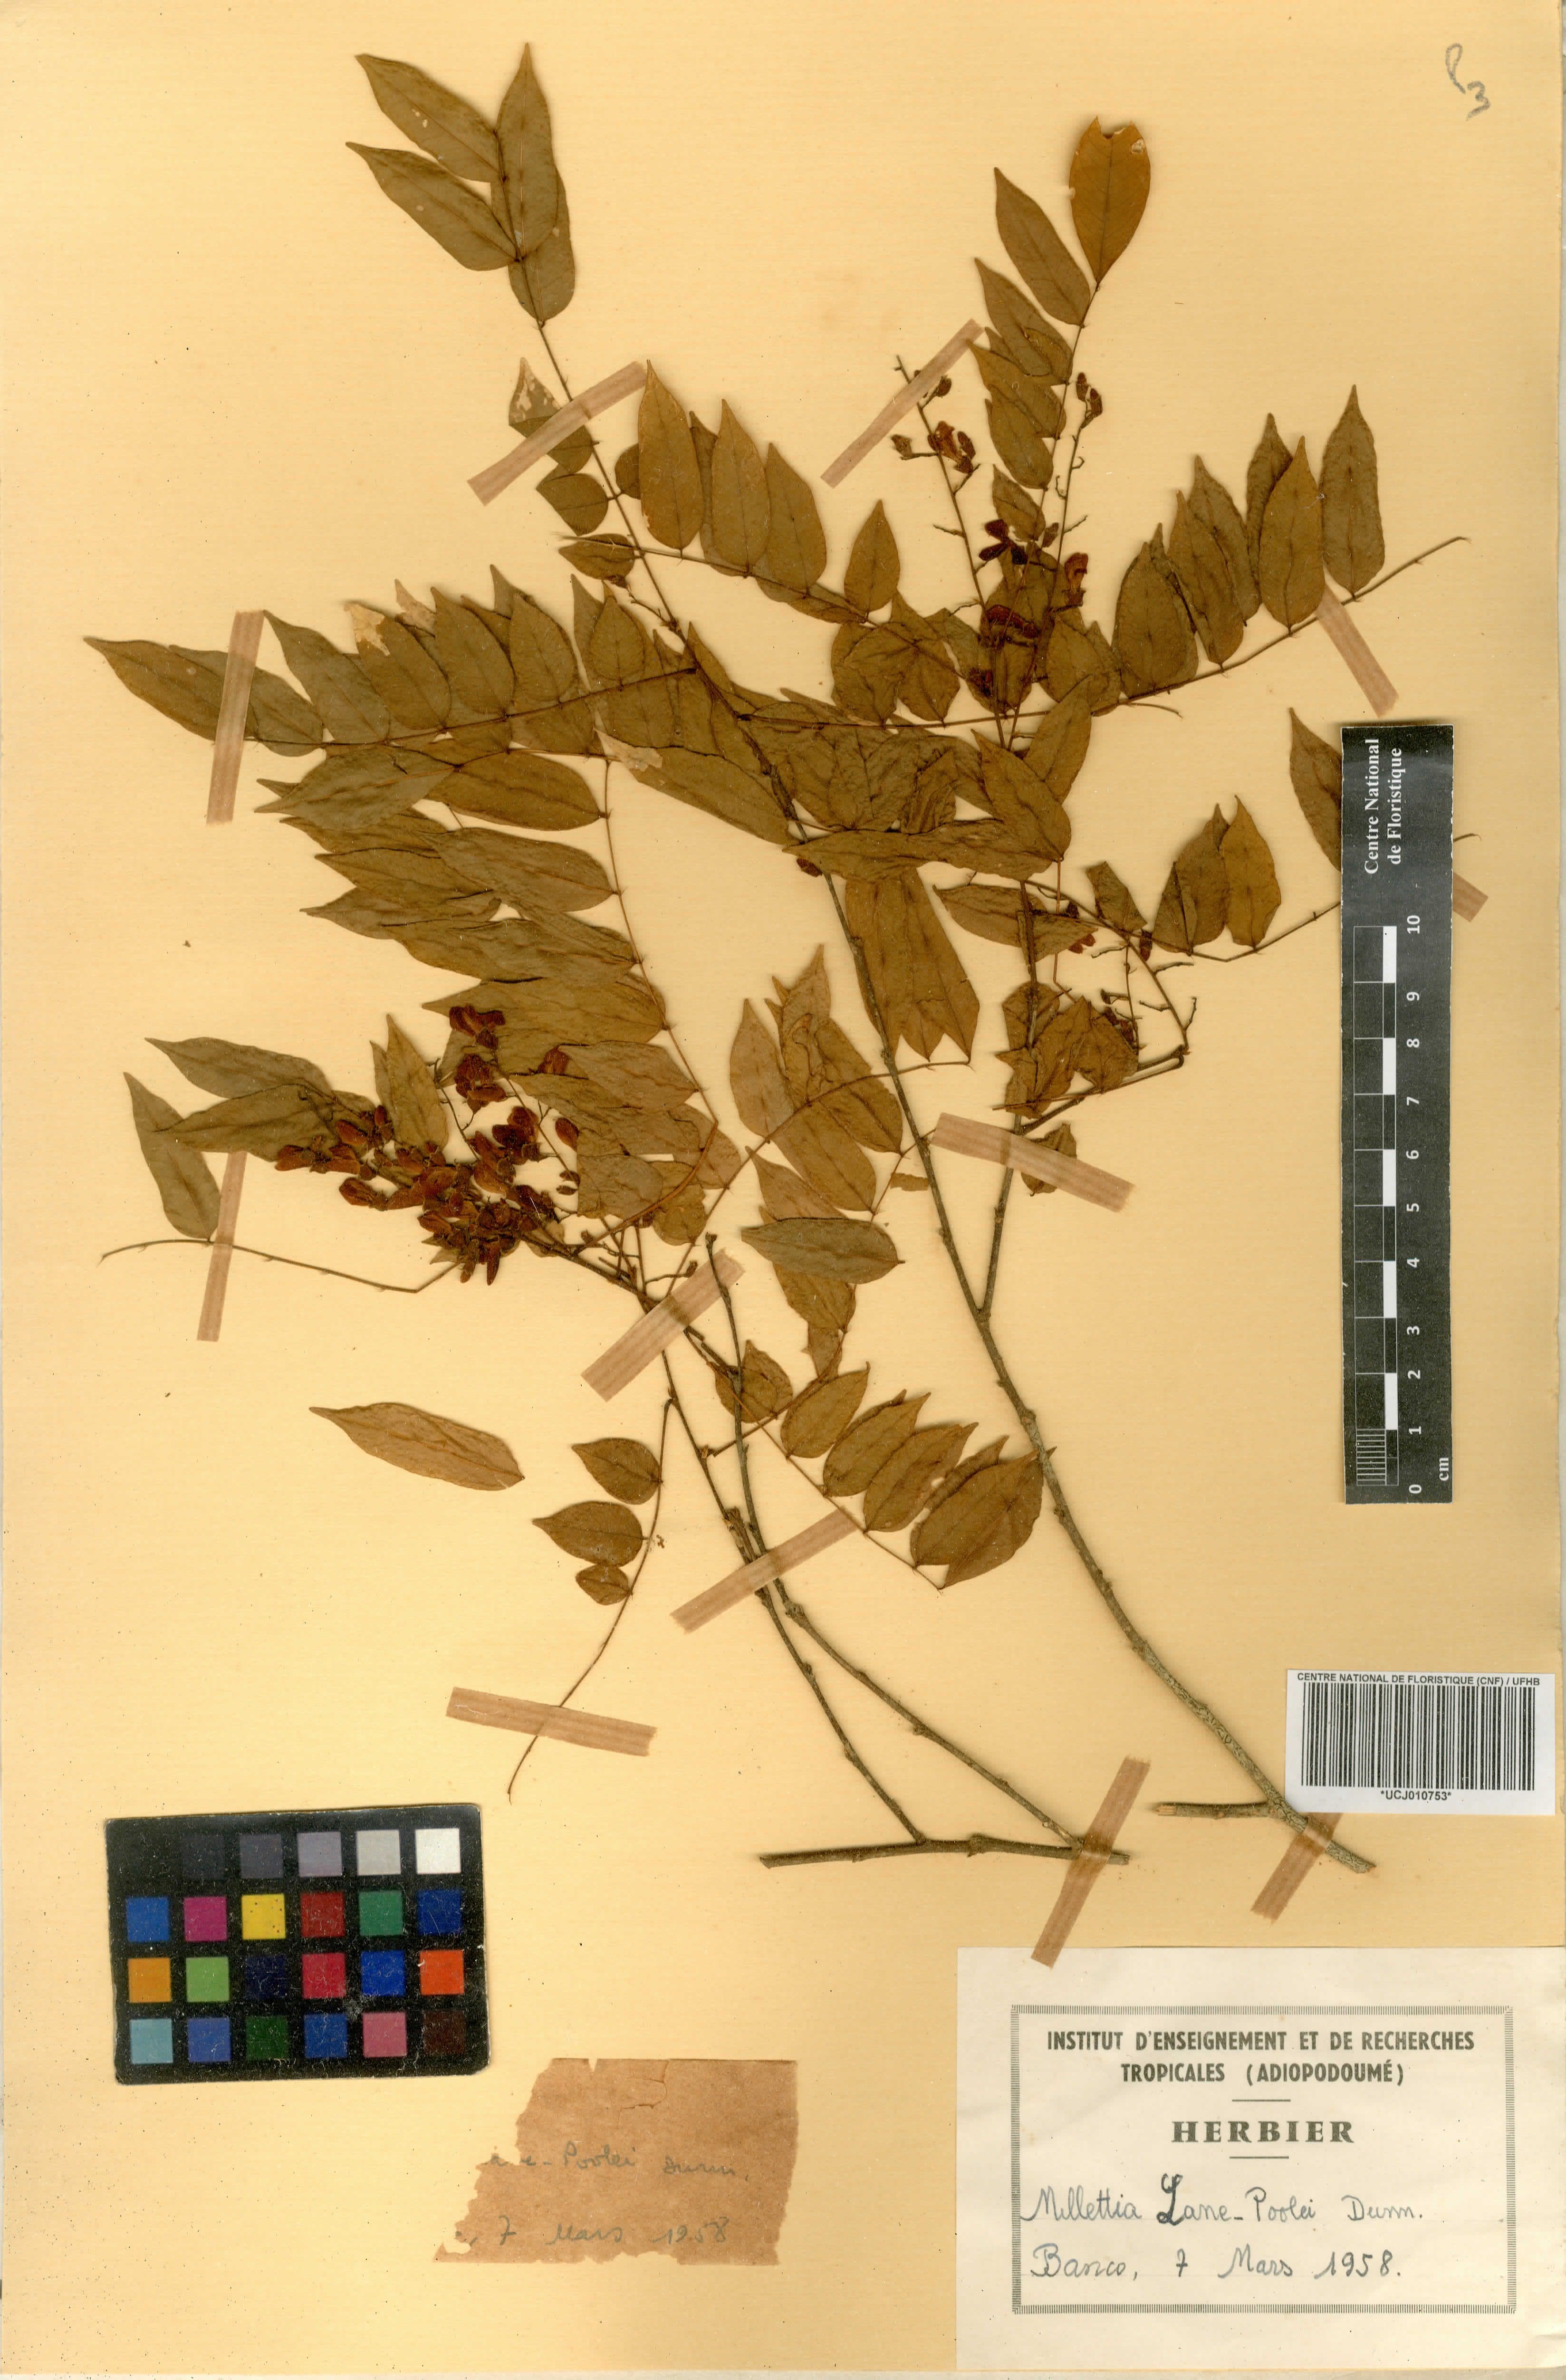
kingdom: Plantae
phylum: Tracheophyta
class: Magnoliopsida
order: Fabales
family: Fabaceae
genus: Millettia
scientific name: Millettia lane-poolei
